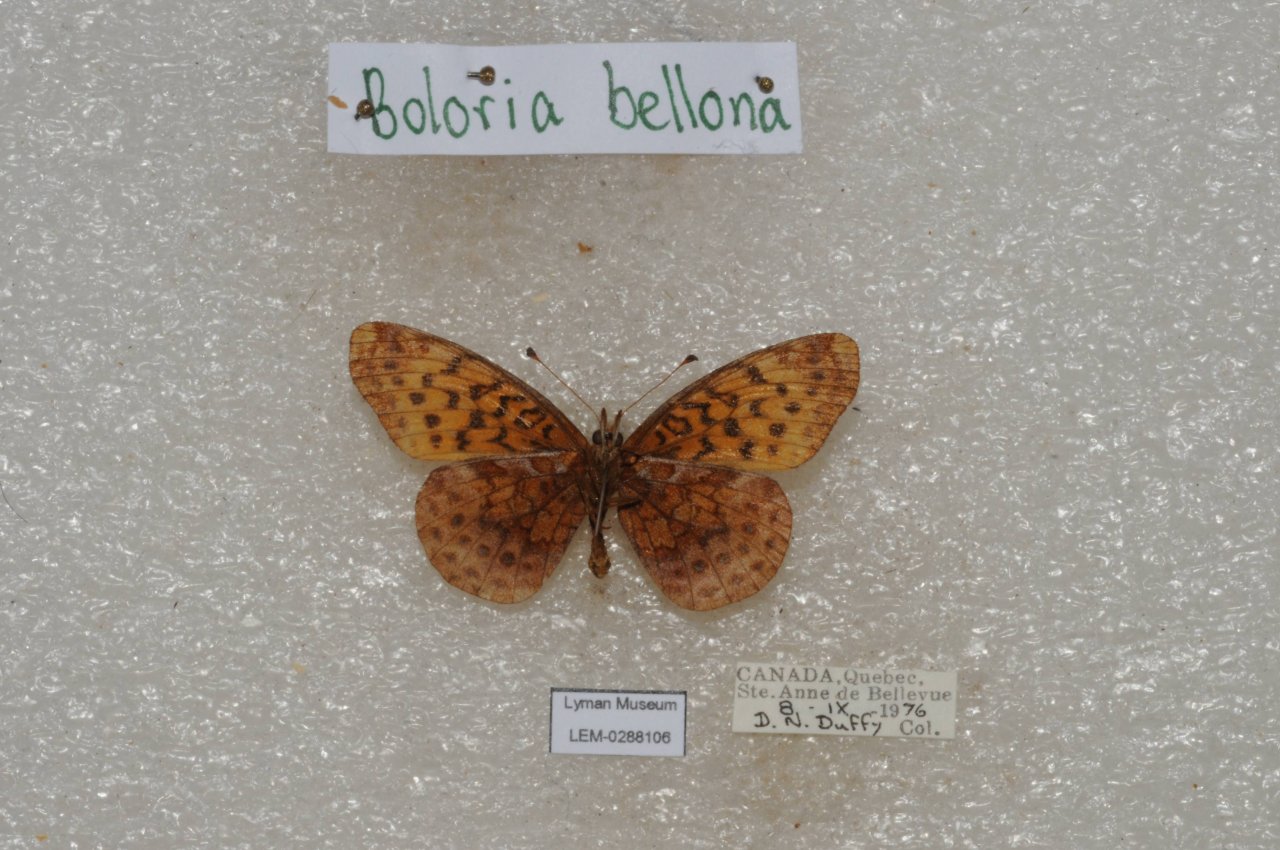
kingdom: Animalia
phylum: Arthropoda
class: Insecta
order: Lepidoptera
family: Nymphalidae
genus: Clossiana
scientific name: Clossiana toddi
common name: Meadow Fritillary
